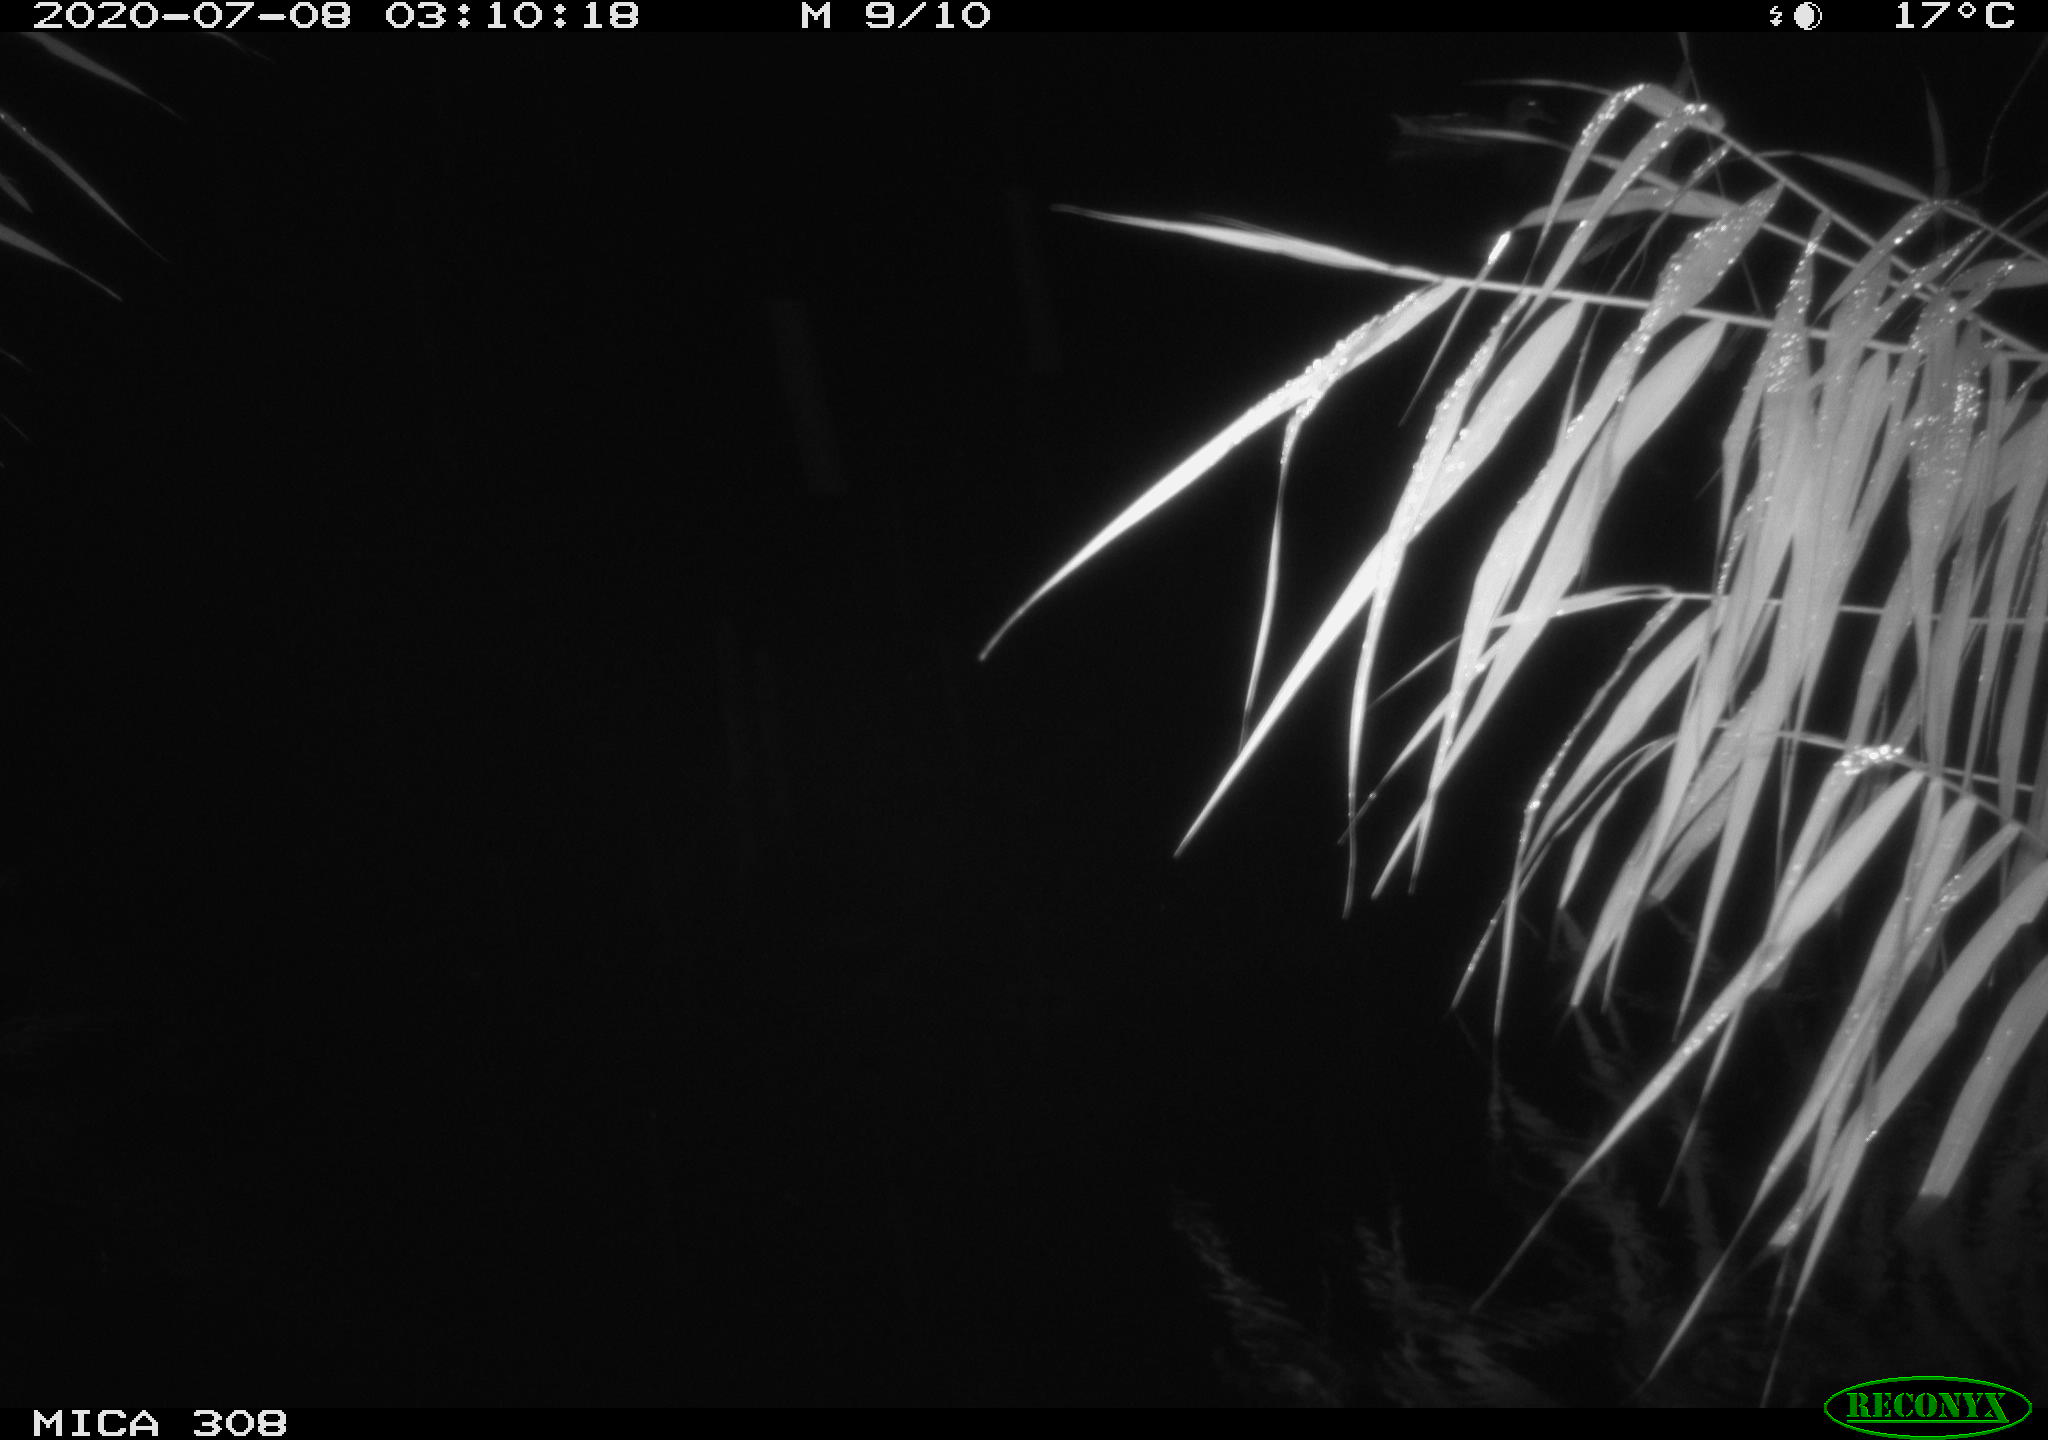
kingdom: Animalia
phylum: Chordata
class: Aves
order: Anseriformes
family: Anatidae
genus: Anas
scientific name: Anas platyrhynchos
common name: Mallard
